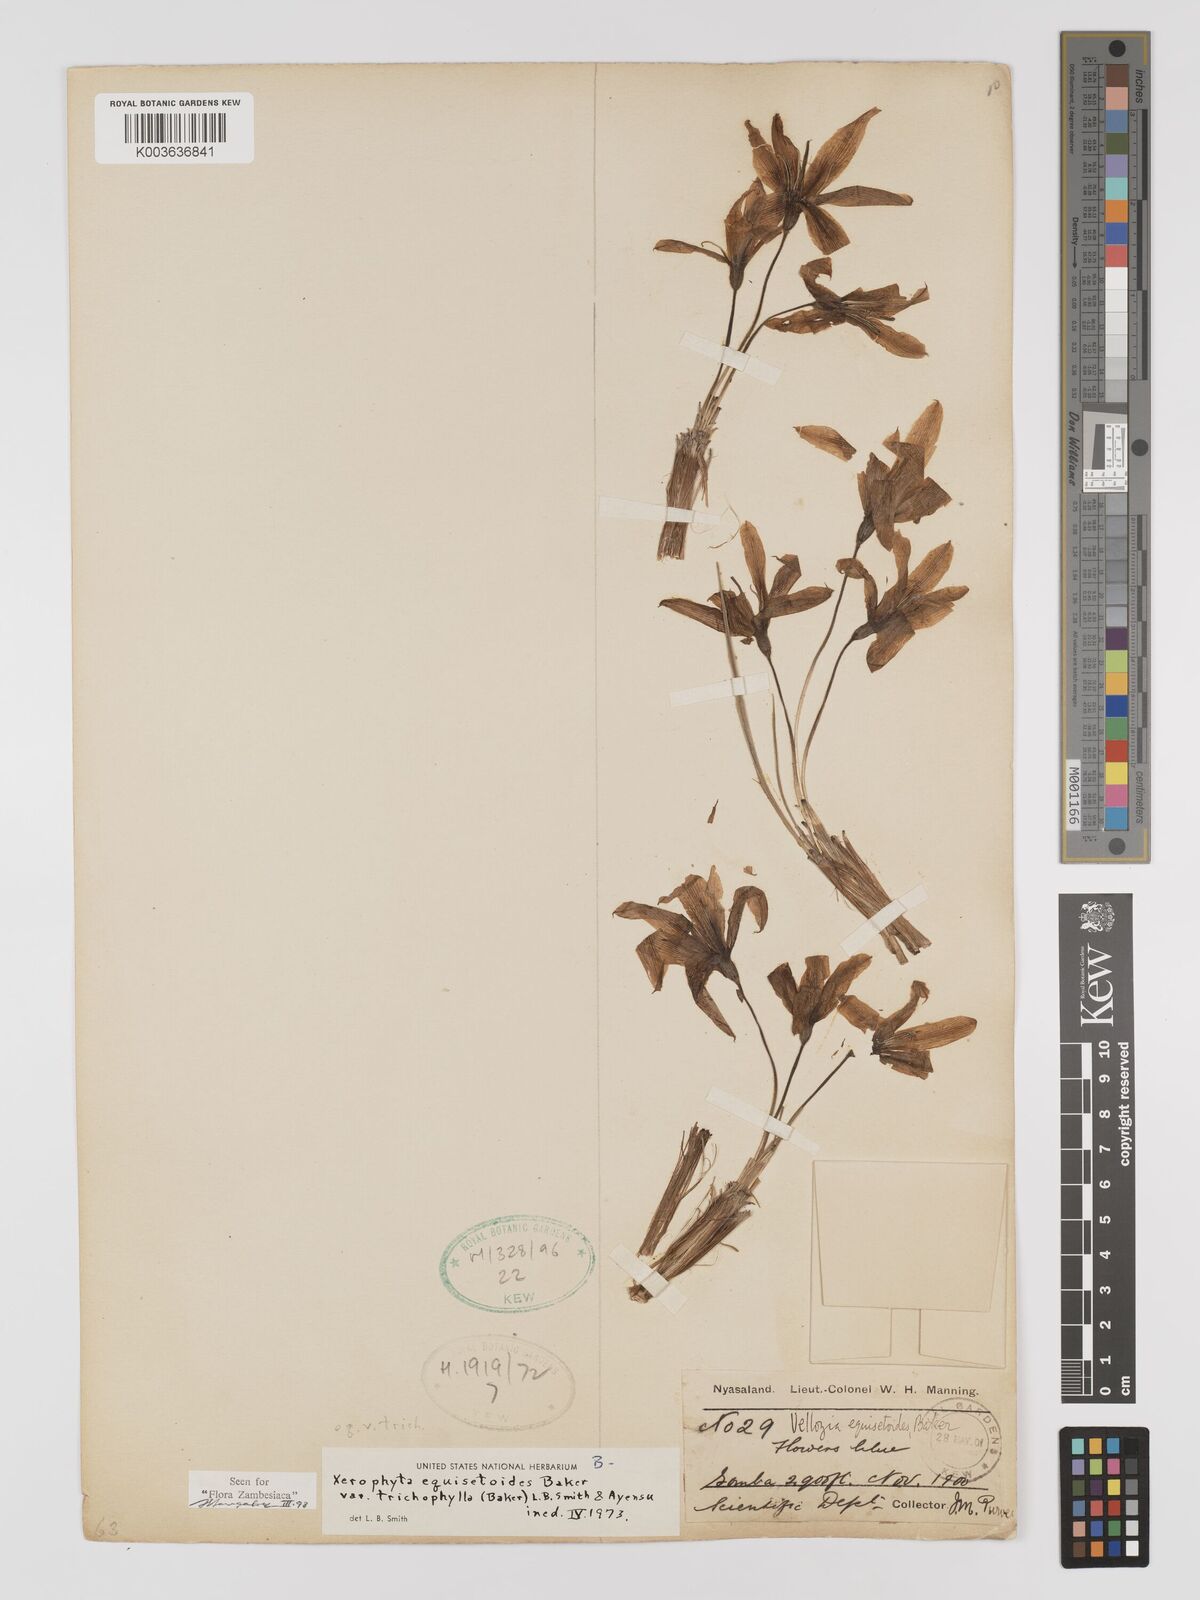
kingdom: Plantae
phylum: Tracheophyta
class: Liliopsida
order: Pandanales
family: Velloziaceae
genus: Xerophyta
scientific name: Xerophyta trichophylla
